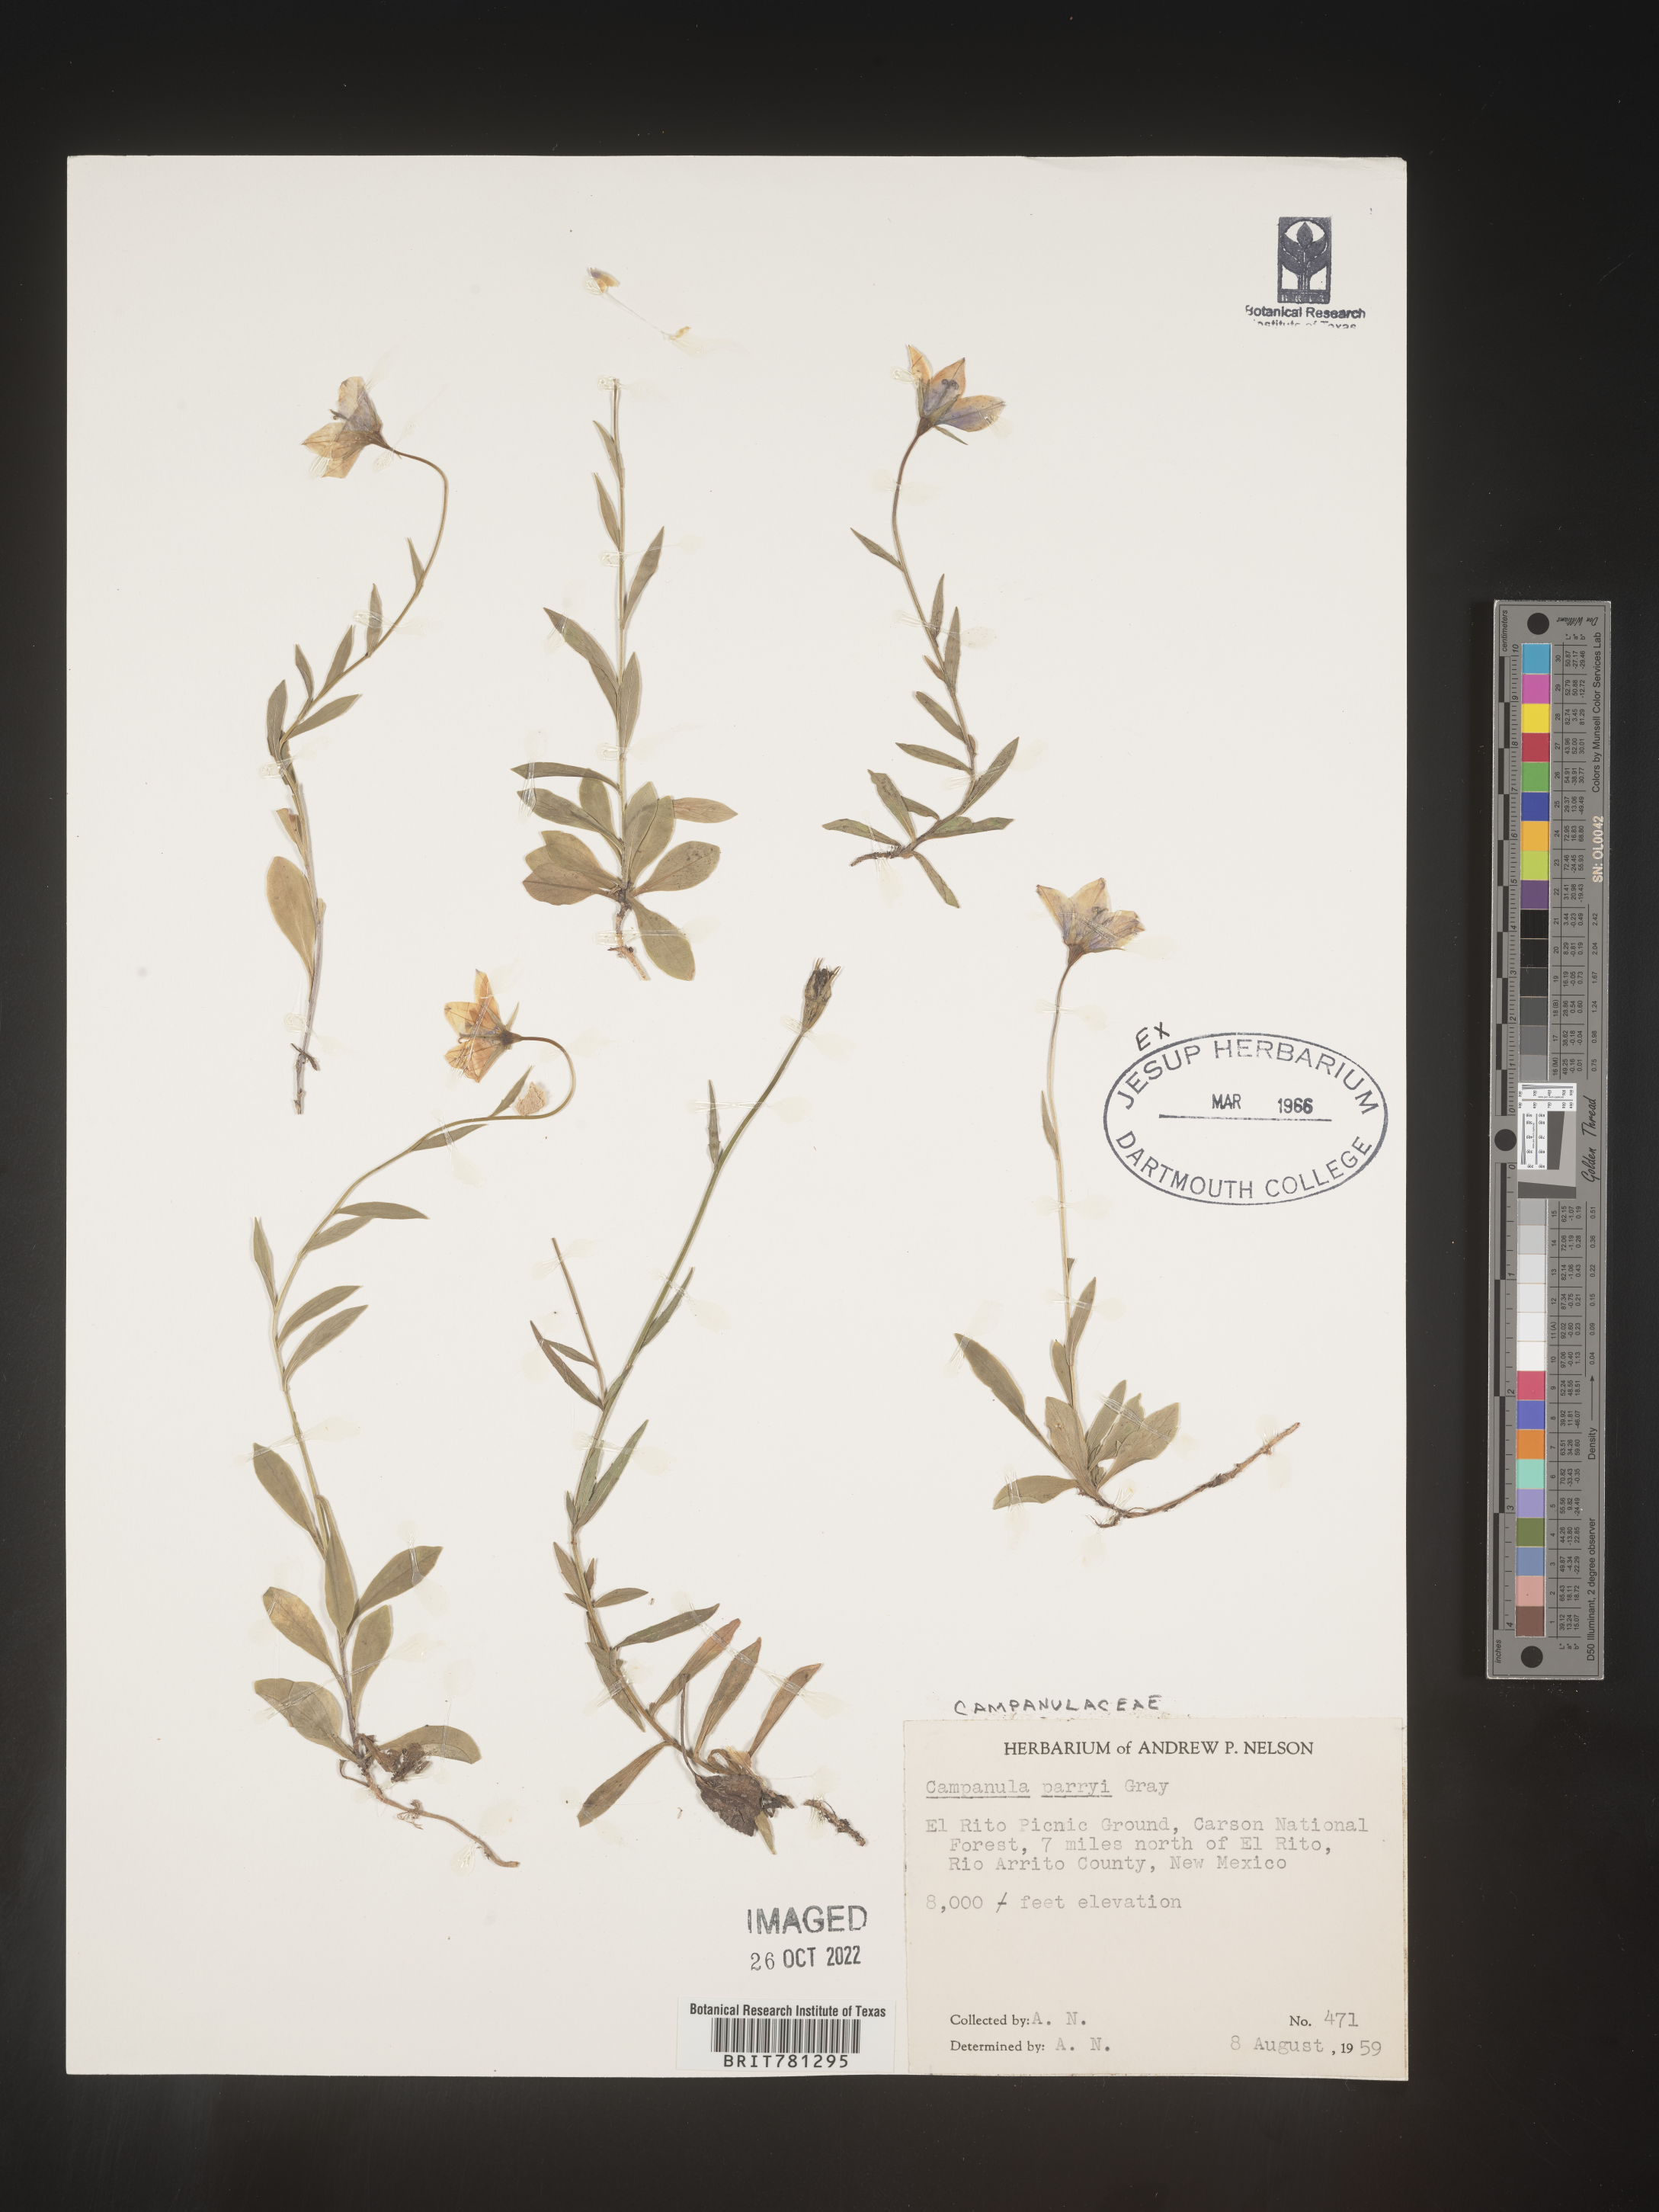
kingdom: Plantae
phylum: Tracheophyta
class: Magnoliopsida
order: Asterales
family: Campanulaceae
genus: Campanula
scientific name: Campanula parryi
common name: Rocky mountain bellflower
